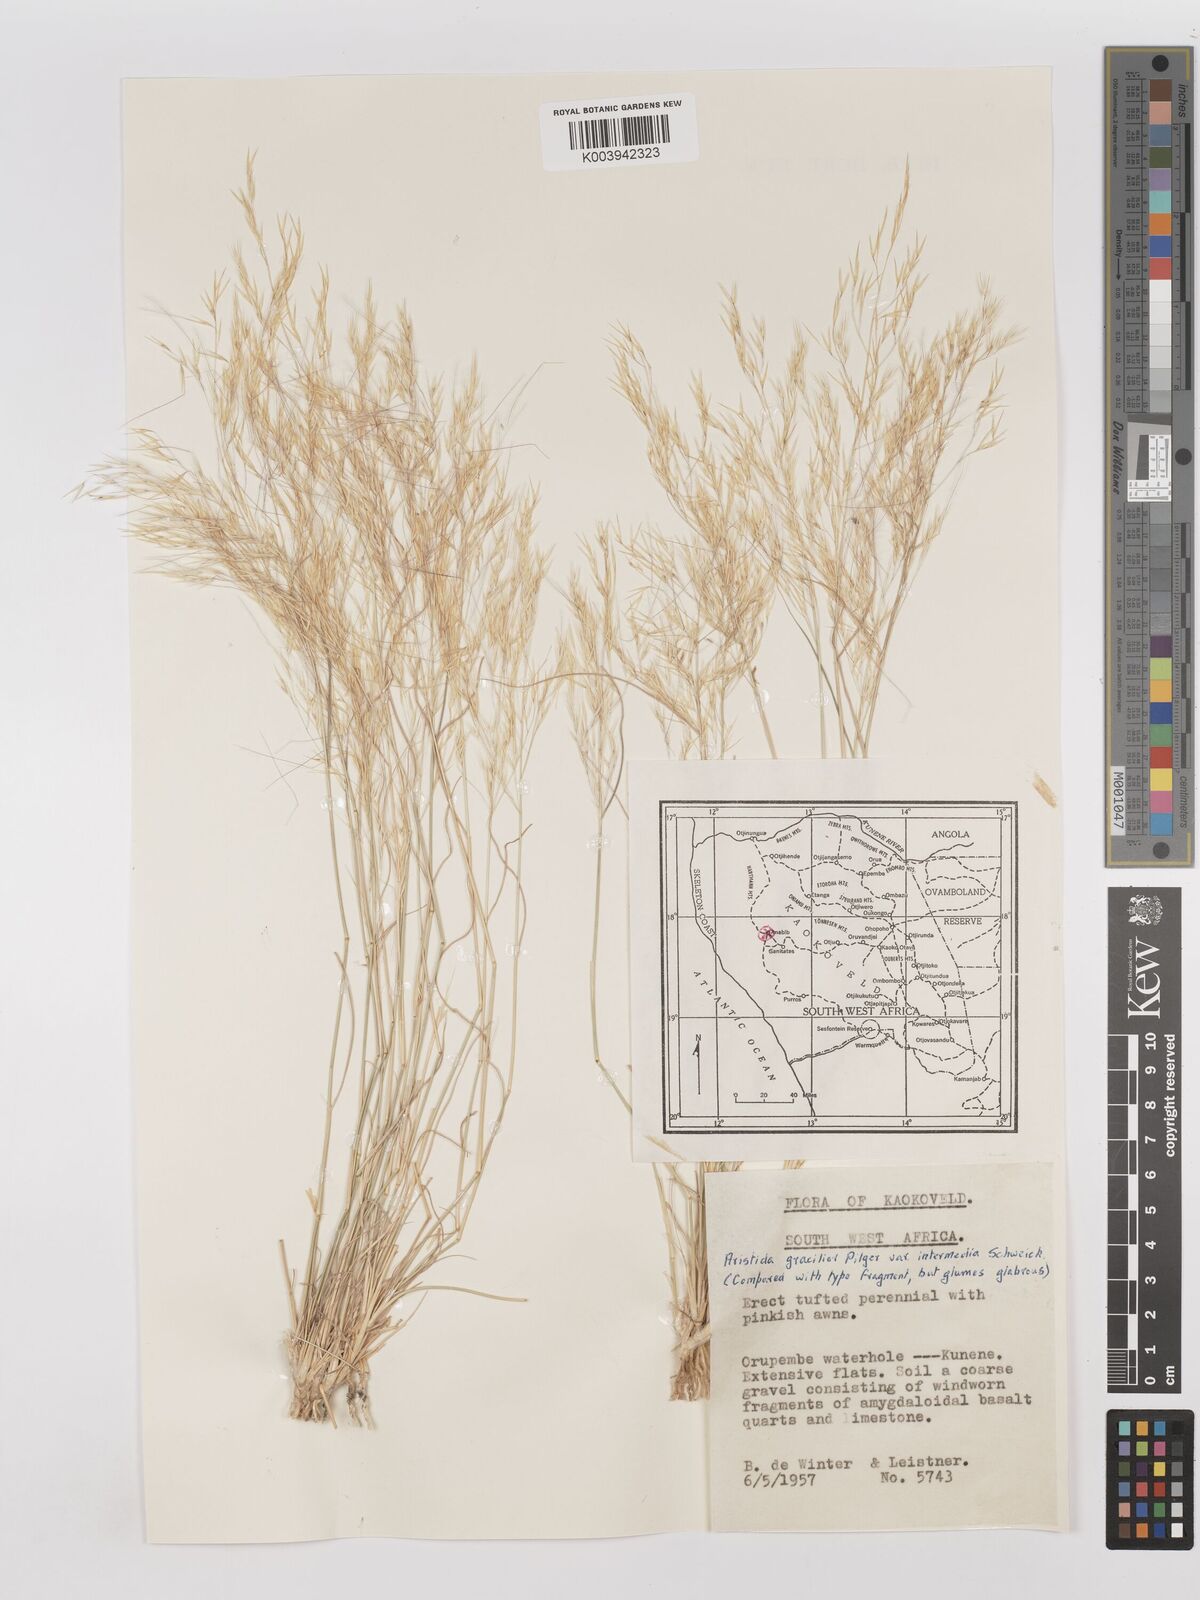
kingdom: Plantae
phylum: Tracheophyta
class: Liliopsida
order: Poales
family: Poaceae
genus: Stipagrostis
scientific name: Stipagrostis uniplumis
